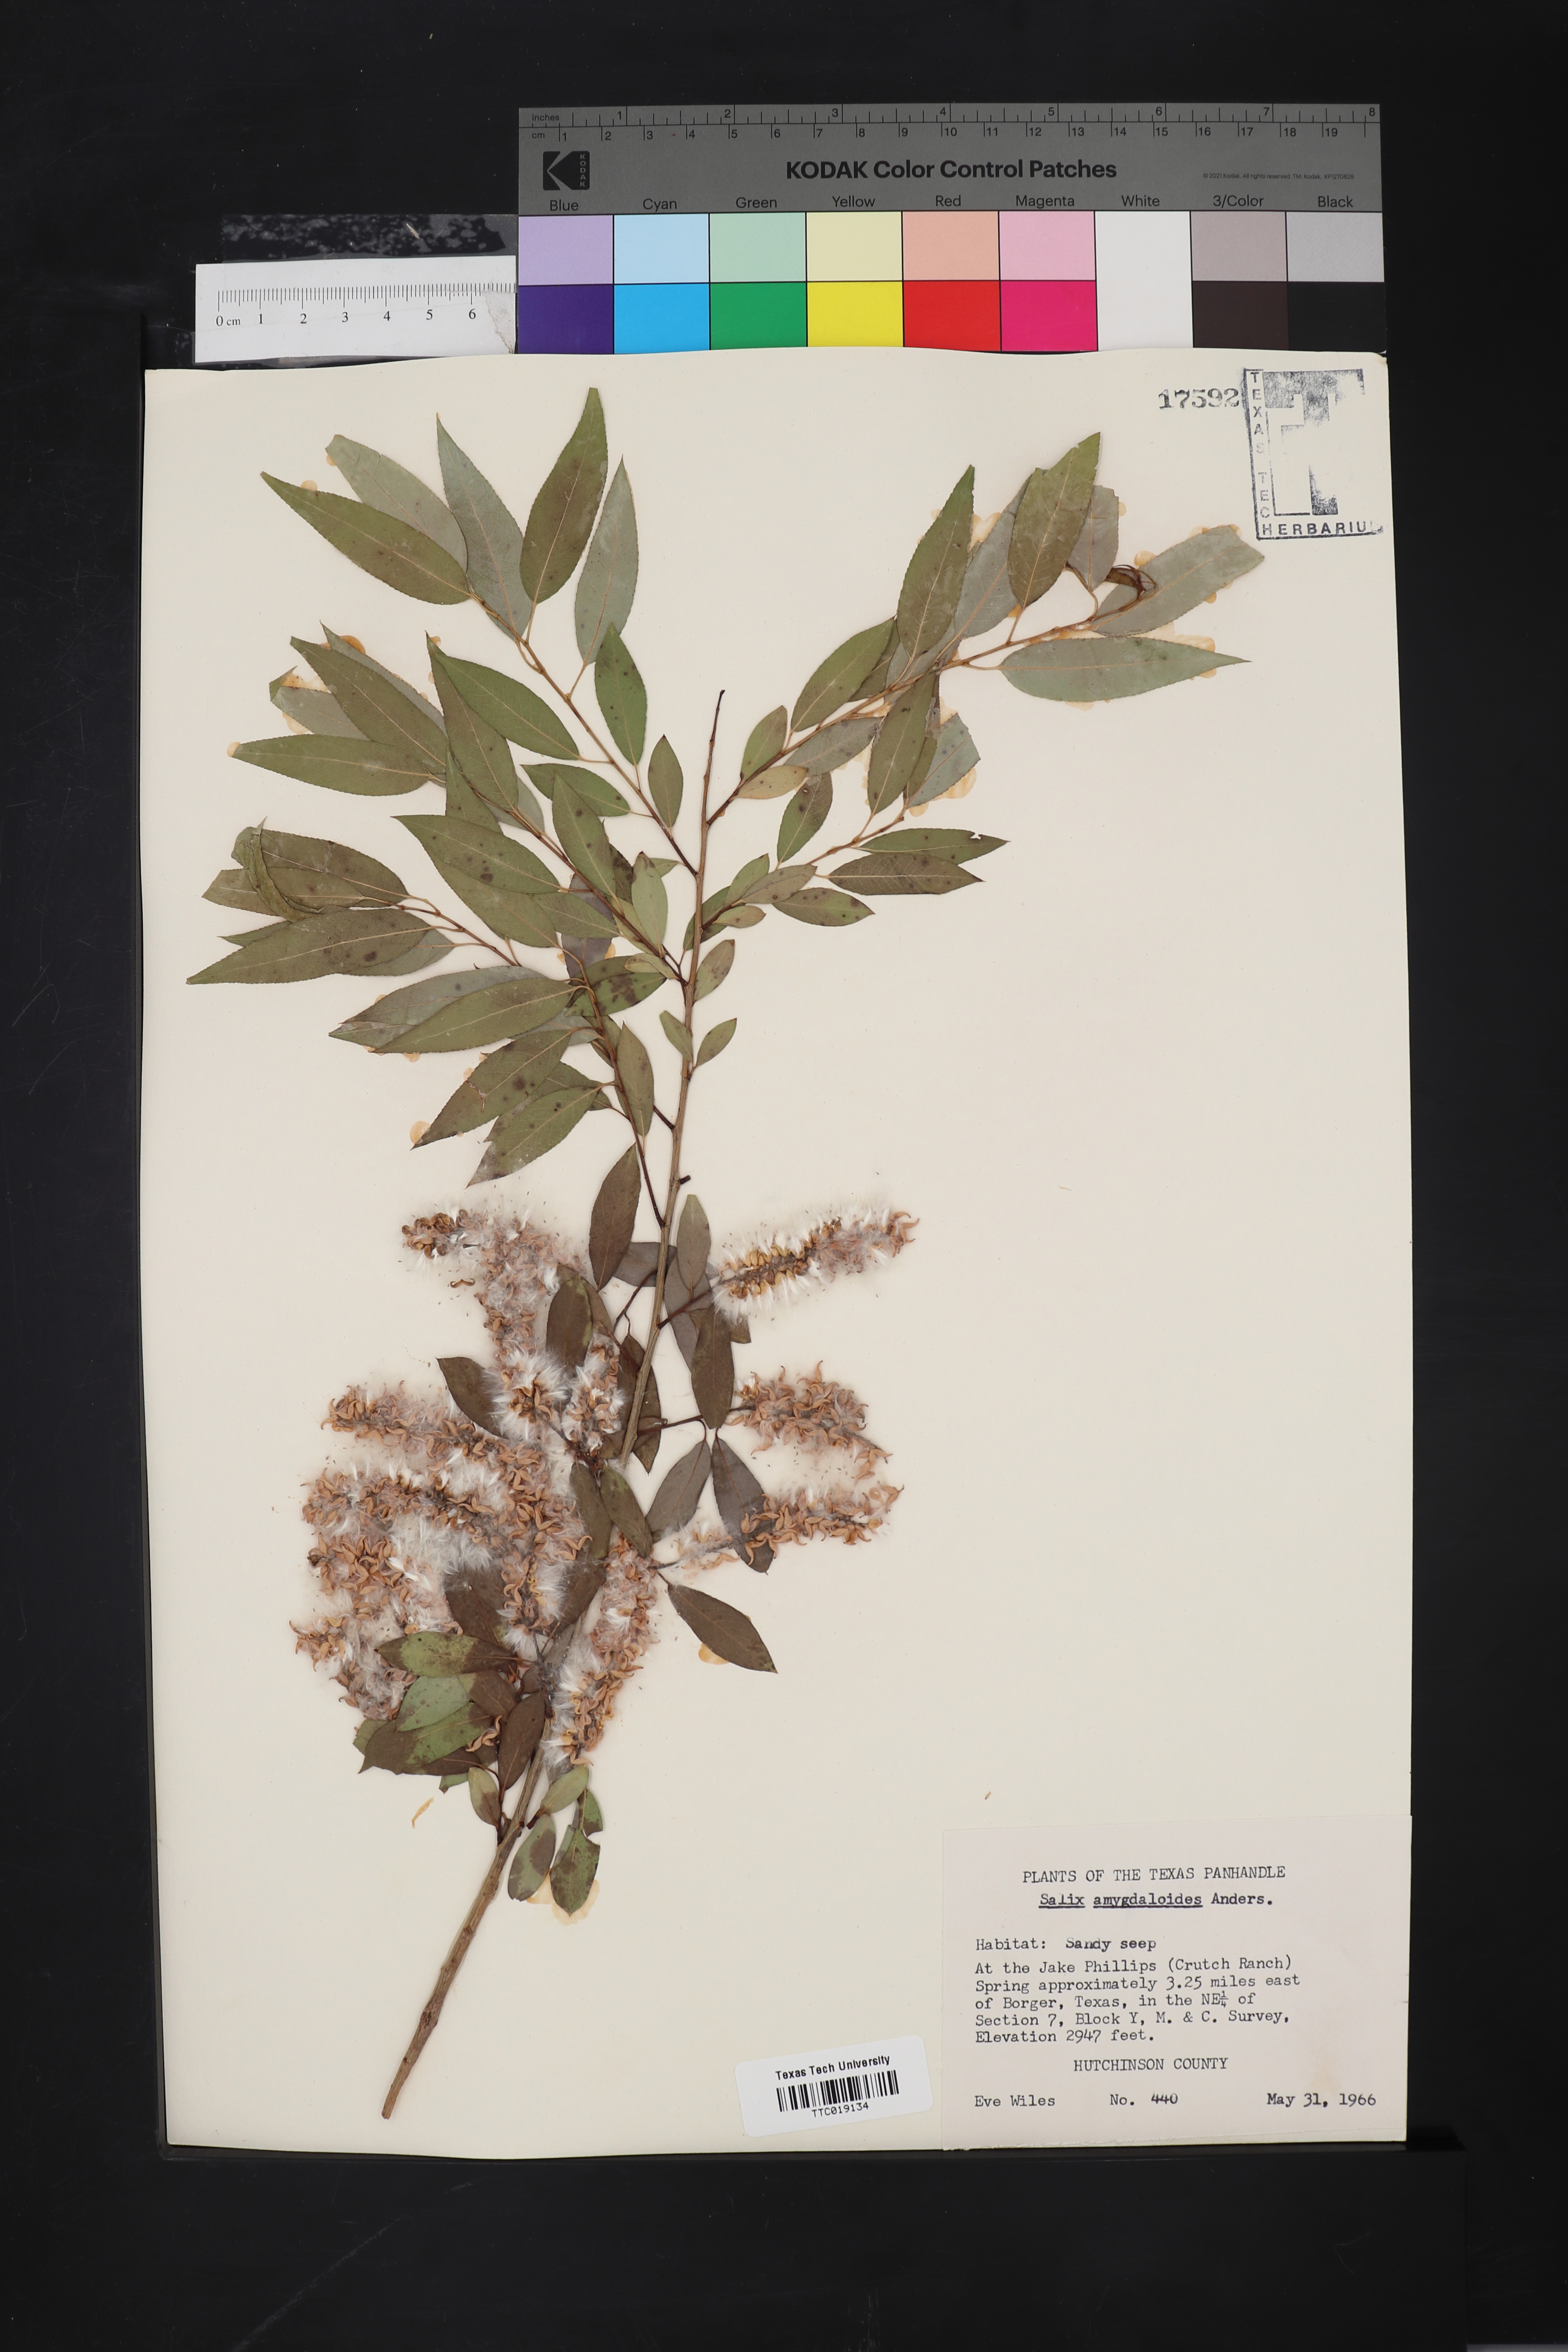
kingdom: Plantae
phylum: Tracheophyta
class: Magnoliopsida
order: Malpighiales
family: Salicaceae
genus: Salix
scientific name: Salix amygdaloides
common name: Peach leaf willow
